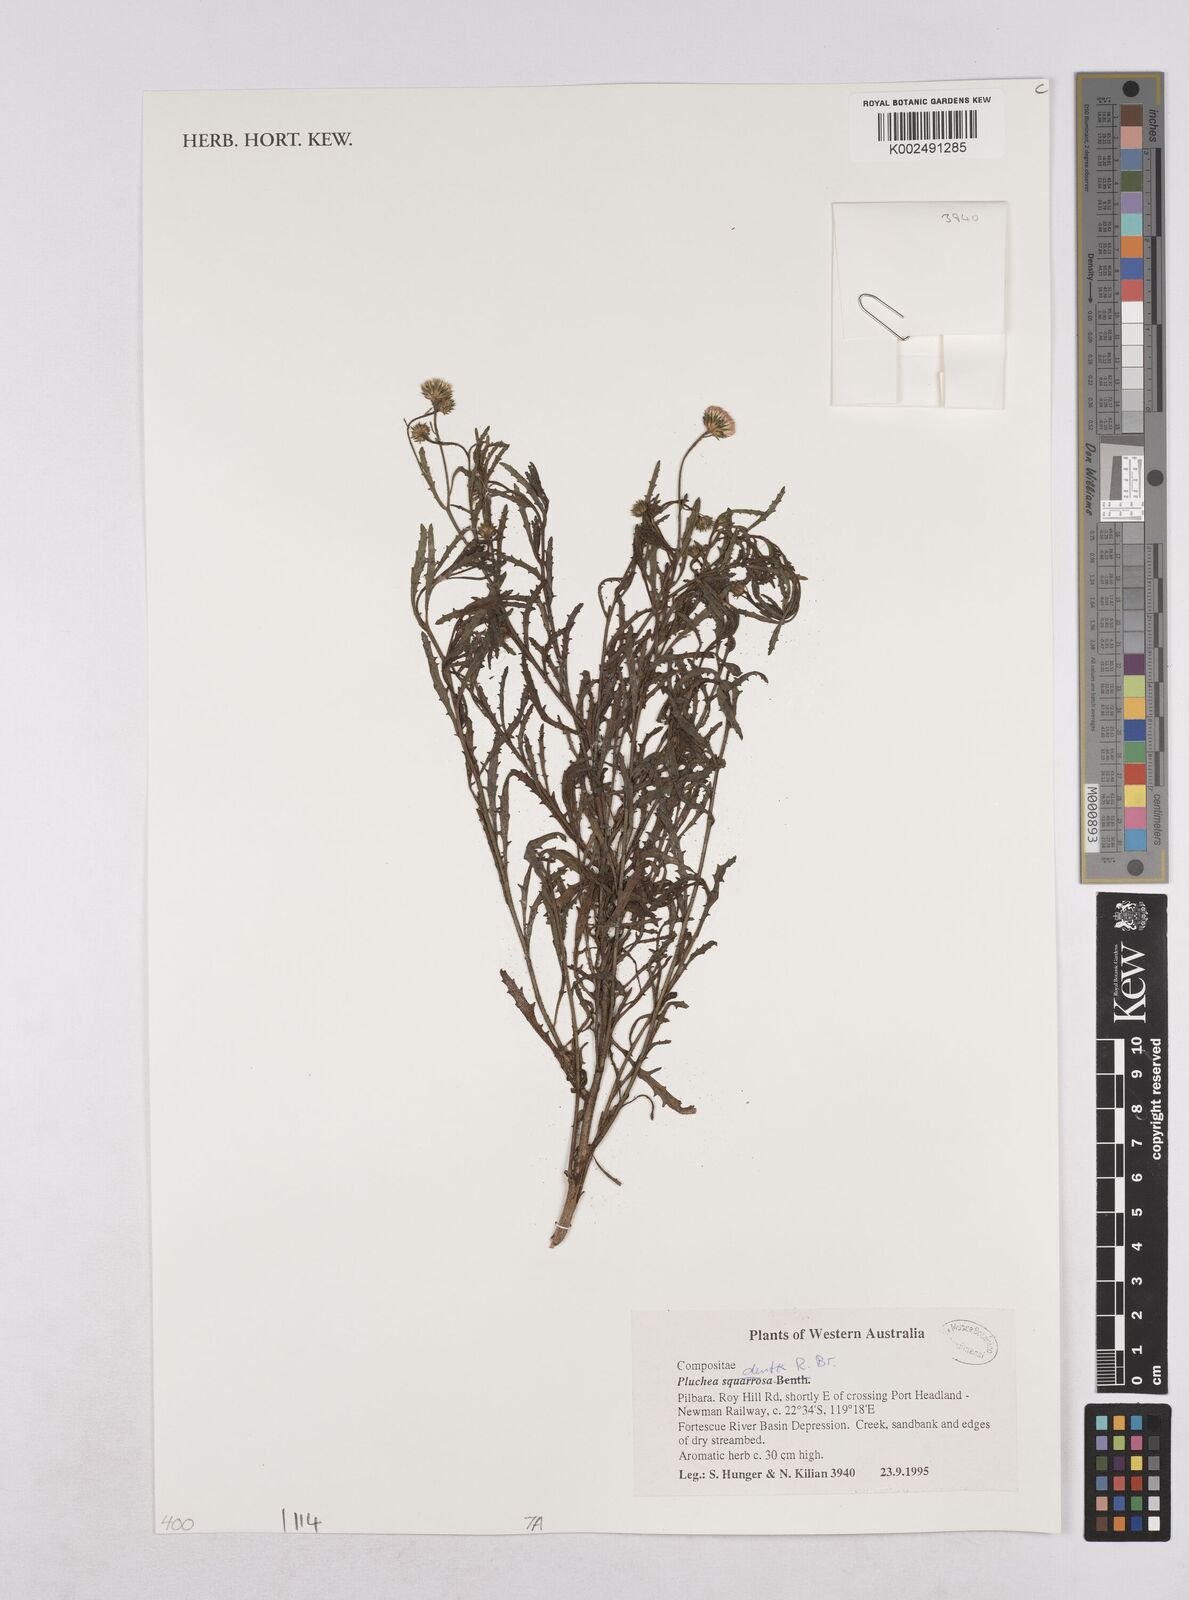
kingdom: Plantae
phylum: Tracheophyta
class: Magnoliopsida
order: Asterales
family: Asteraceae
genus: Pluchea
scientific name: Pluchea dentex
